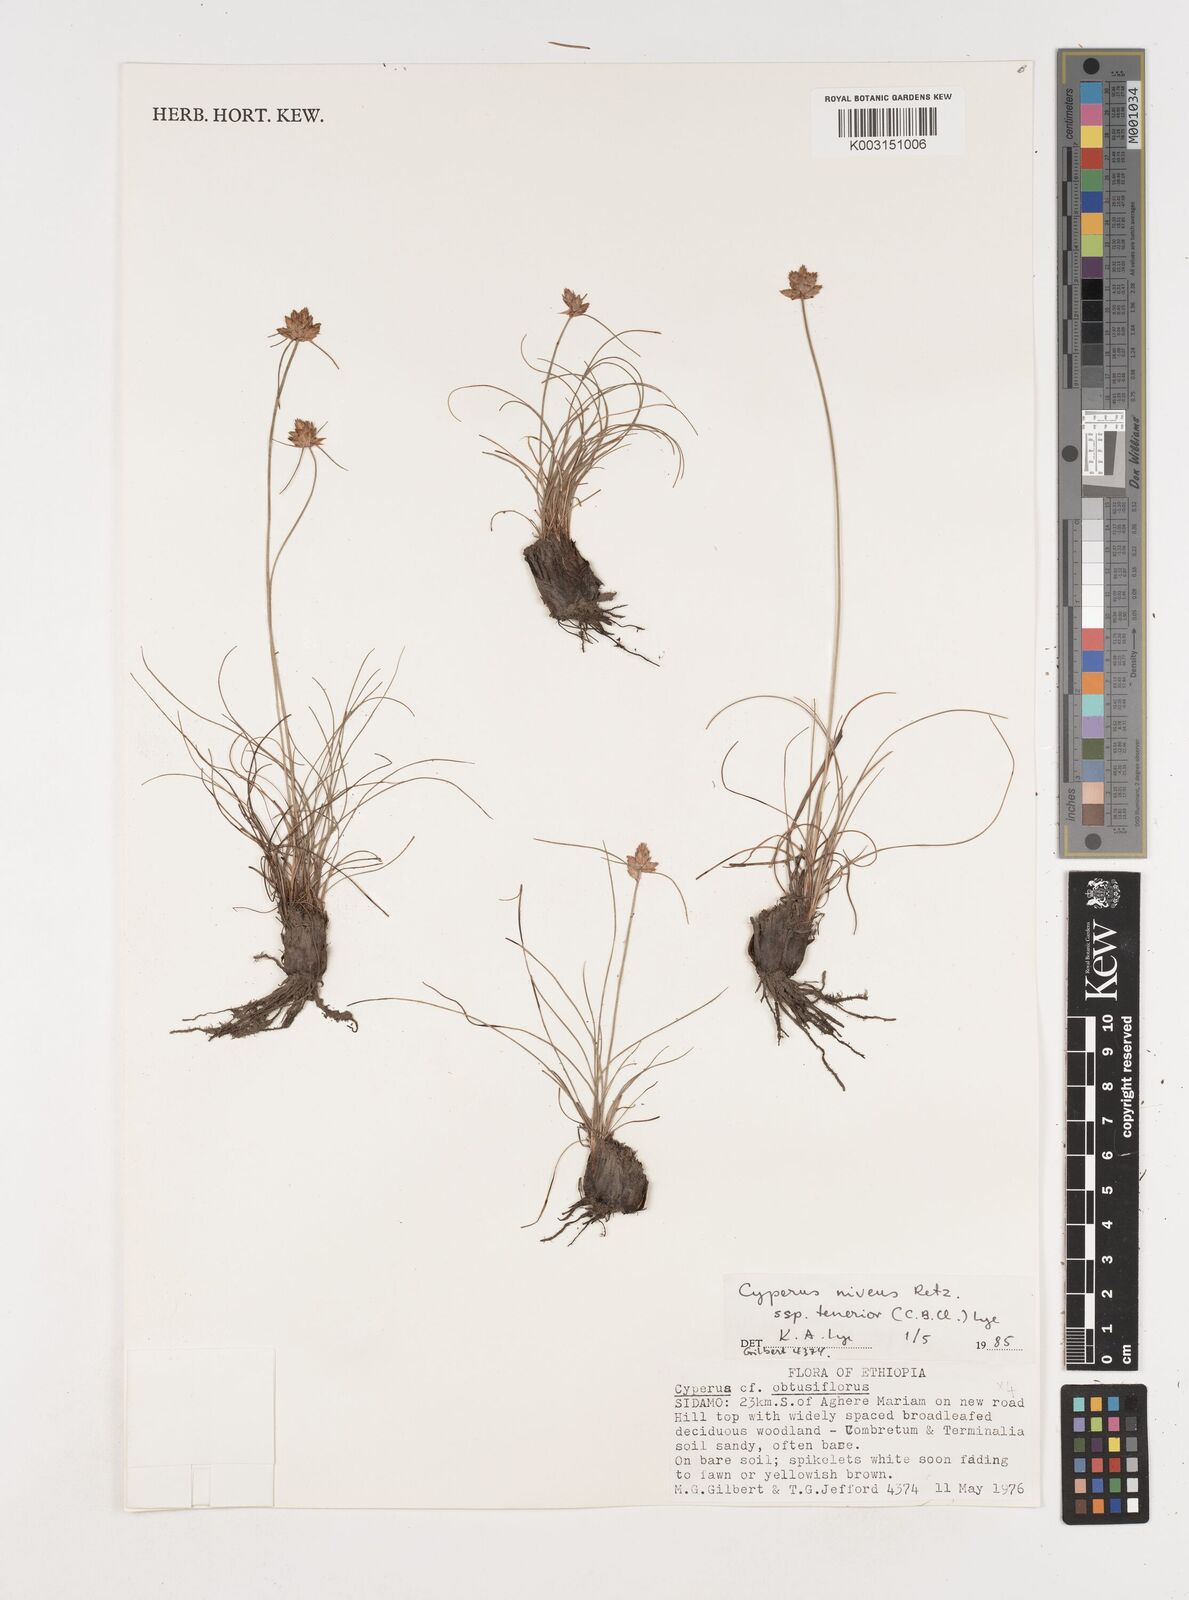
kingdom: Plantae
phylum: Tracheophyta
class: Liliopsida
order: Poales
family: Cyperaceae
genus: Cyperus
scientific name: Cyperus niveus
